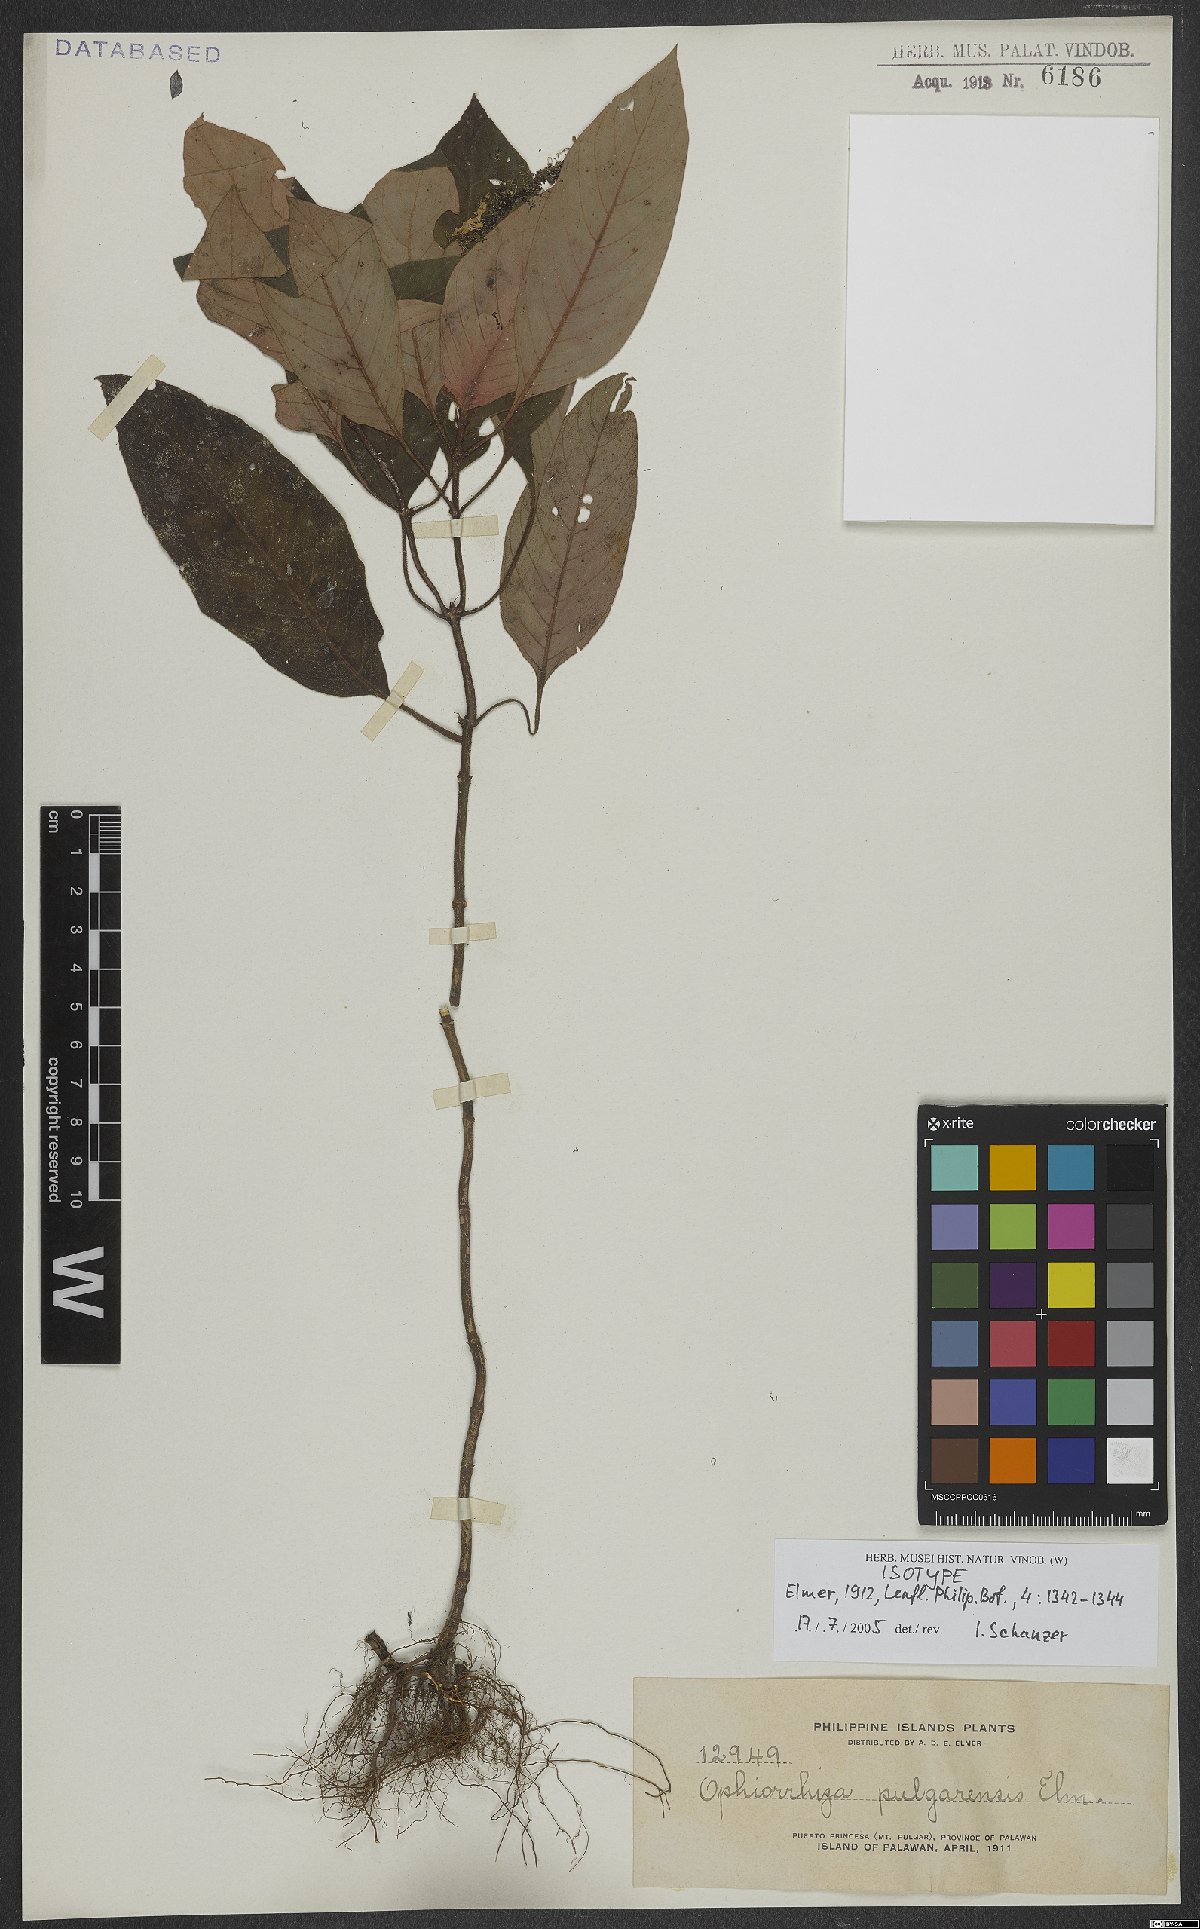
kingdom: Plantae
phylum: Tracheophyta
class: Magnoliopsida
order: Gentianales
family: Rubiaceae
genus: Ophiorrhiza
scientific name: Ophiorrhiza pulgarensis
